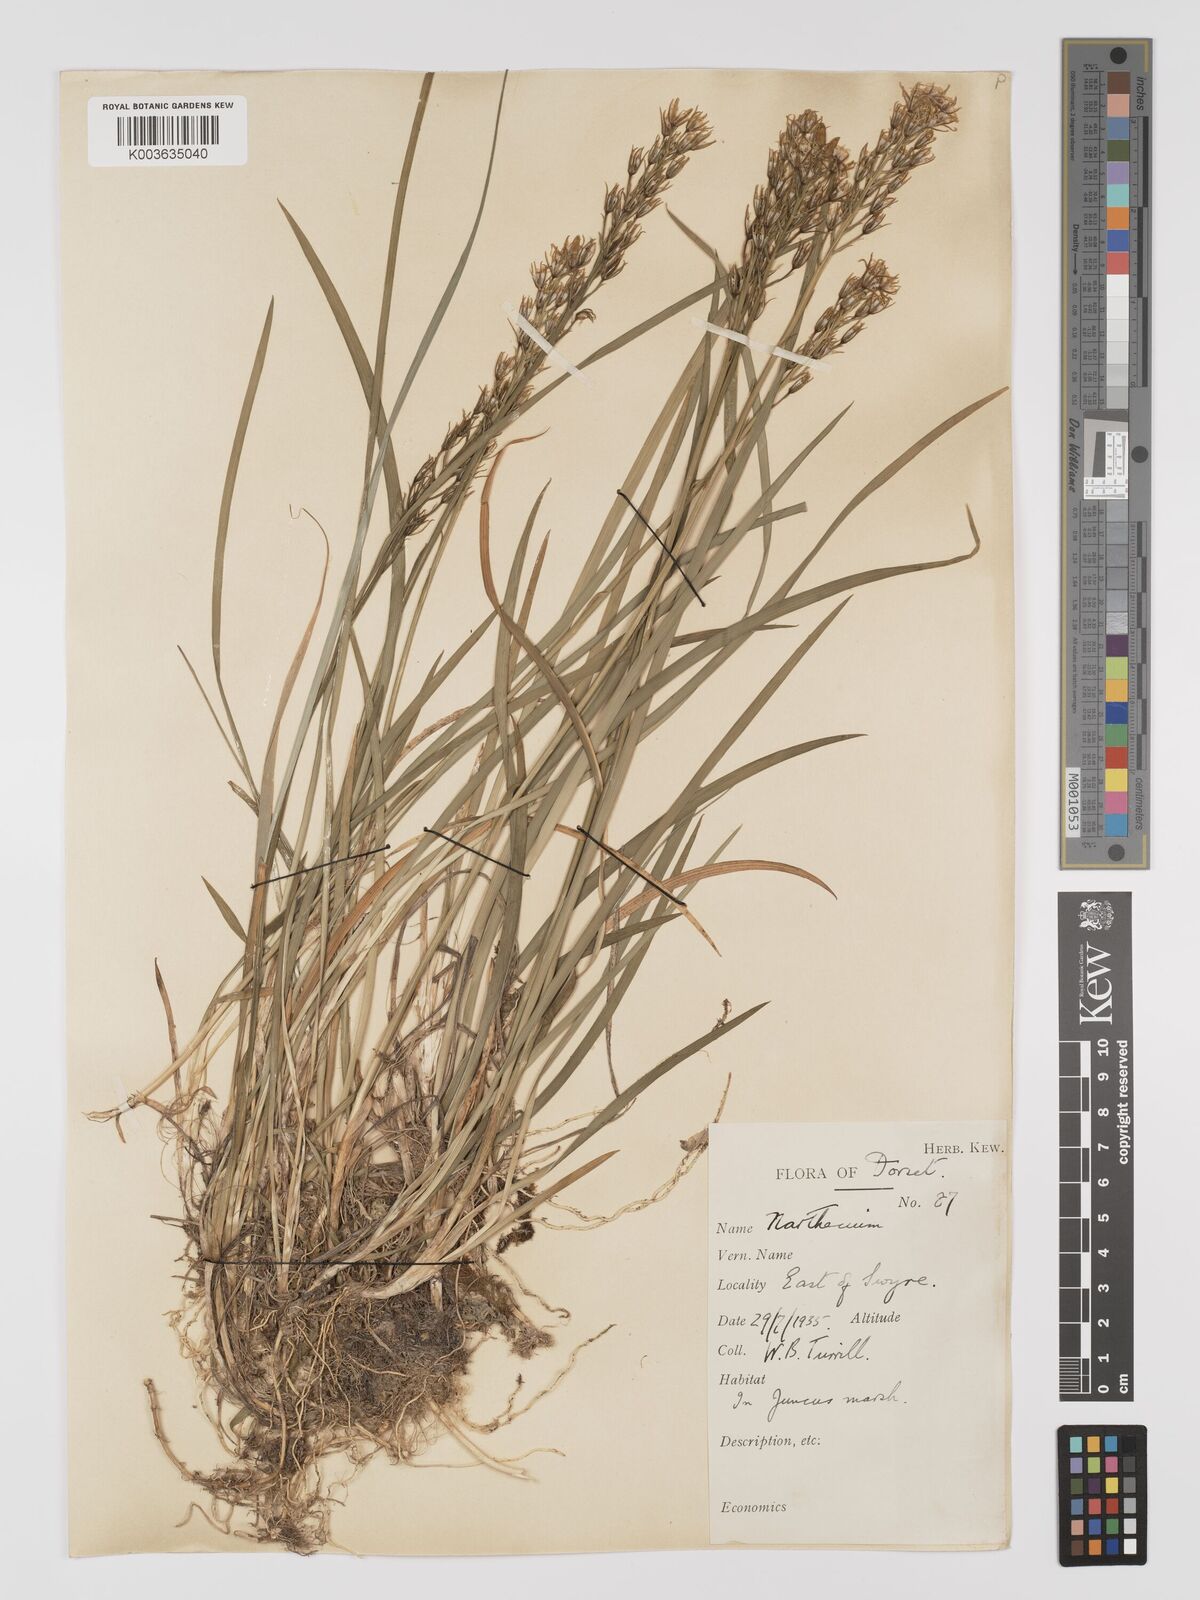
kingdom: Plantae
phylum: Tracheophyta
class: Liliopsida
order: Dioscoreales
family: Nartheciaceae
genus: Narthecium
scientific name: Narthecium
